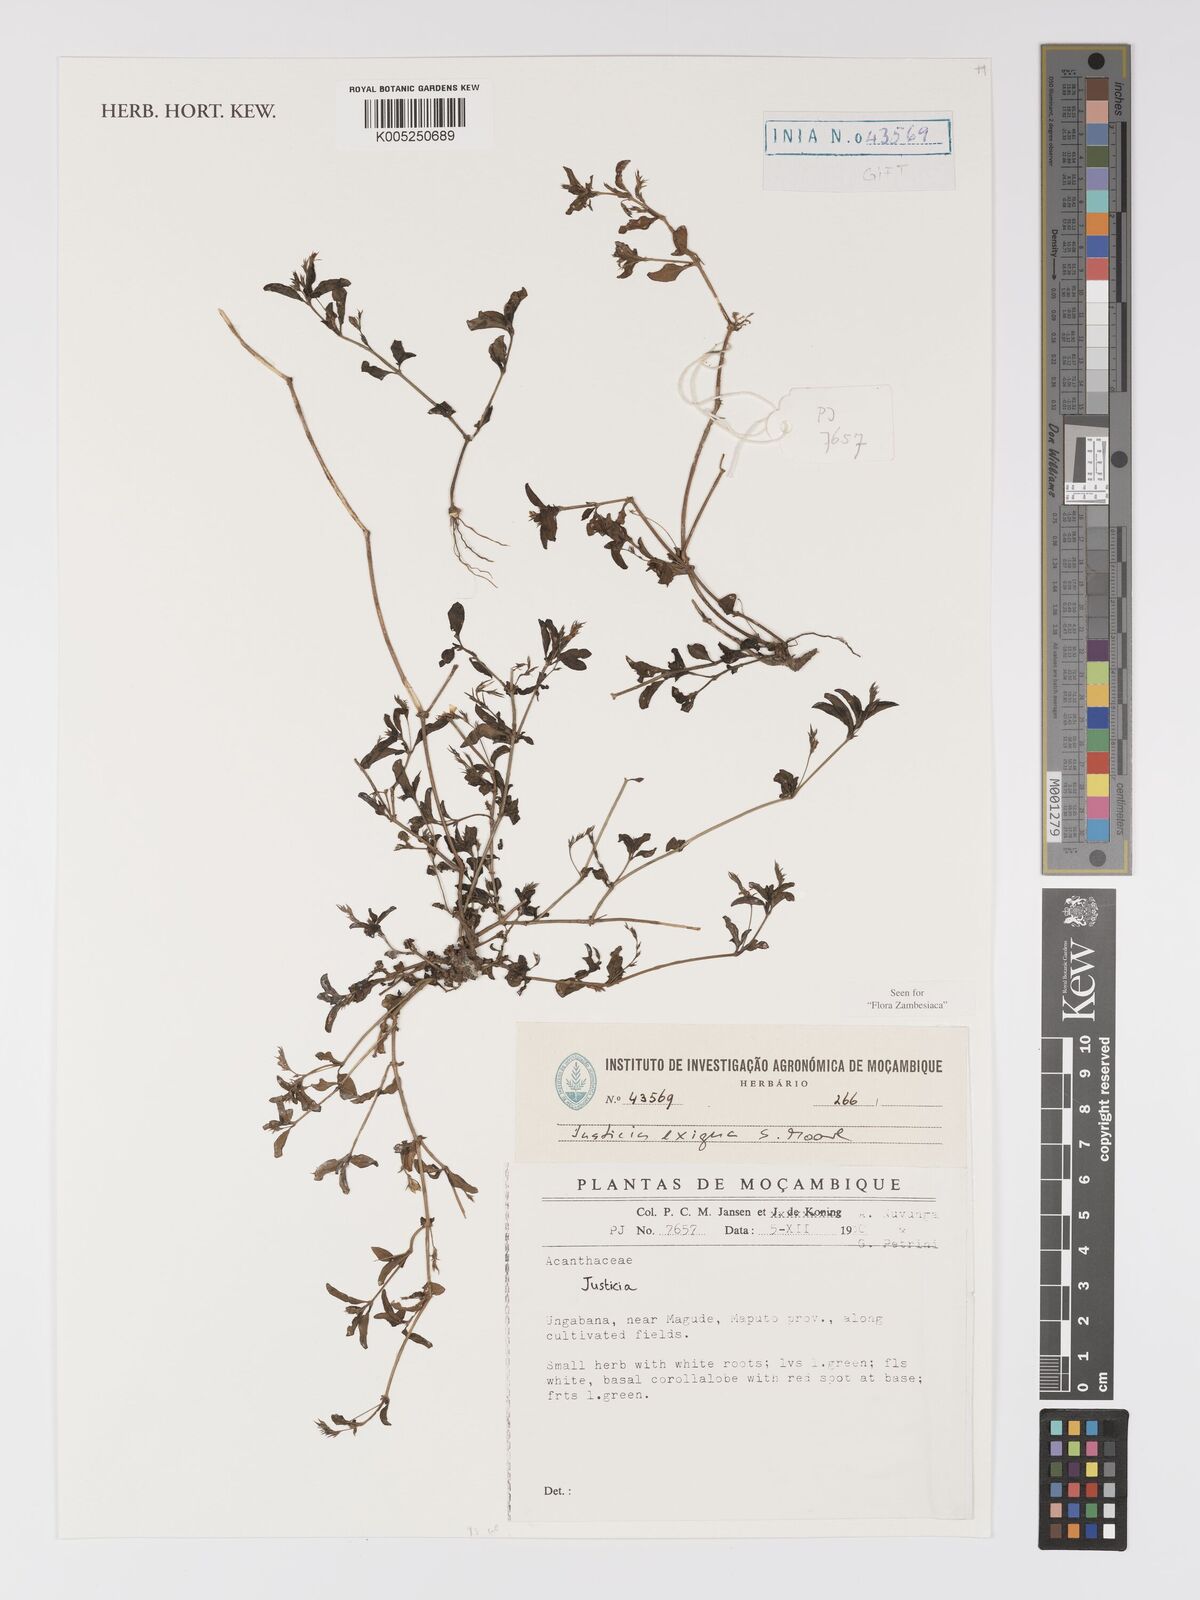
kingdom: Plantae
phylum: Tracheophyta
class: Magnoliopsida
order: Lamiales
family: Acanthaceae
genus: Justicia
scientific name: Justicia exigua
